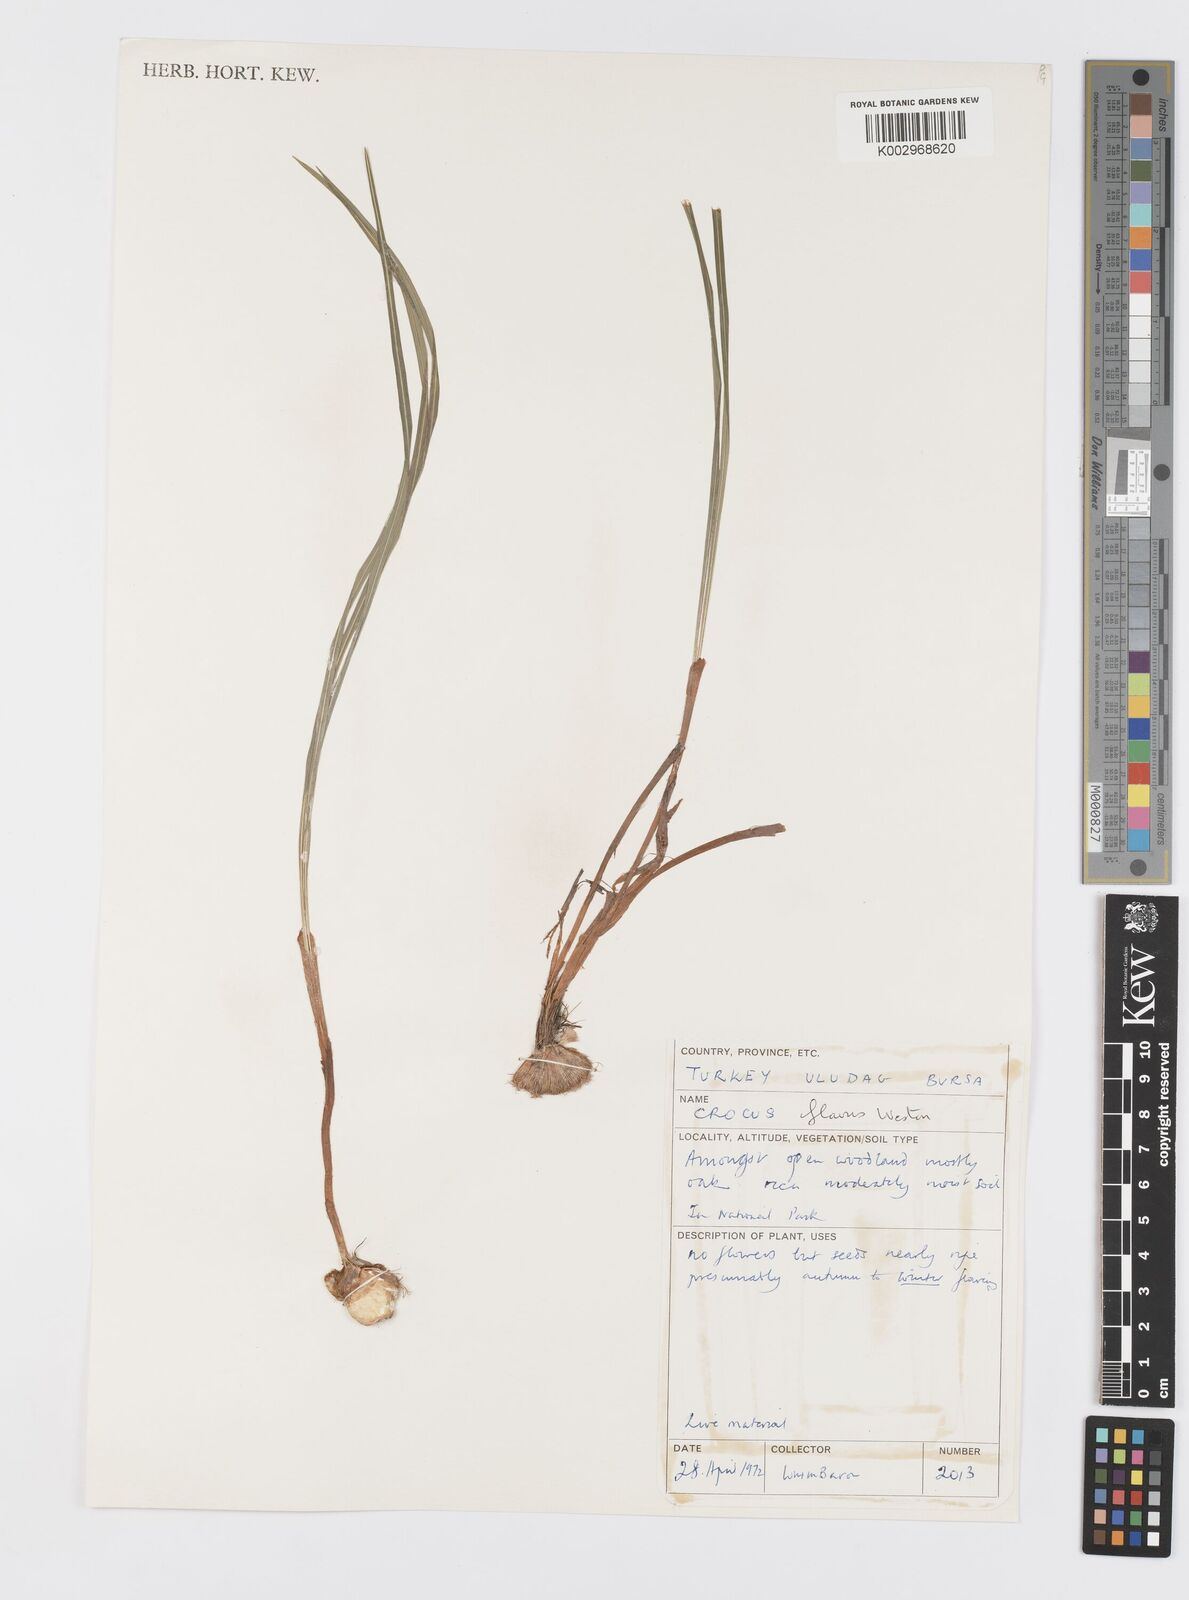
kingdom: Plantae
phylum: Tracheophyta
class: Liliopsida
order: Asparagales
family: Iridaceae
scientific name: Iridaceae
